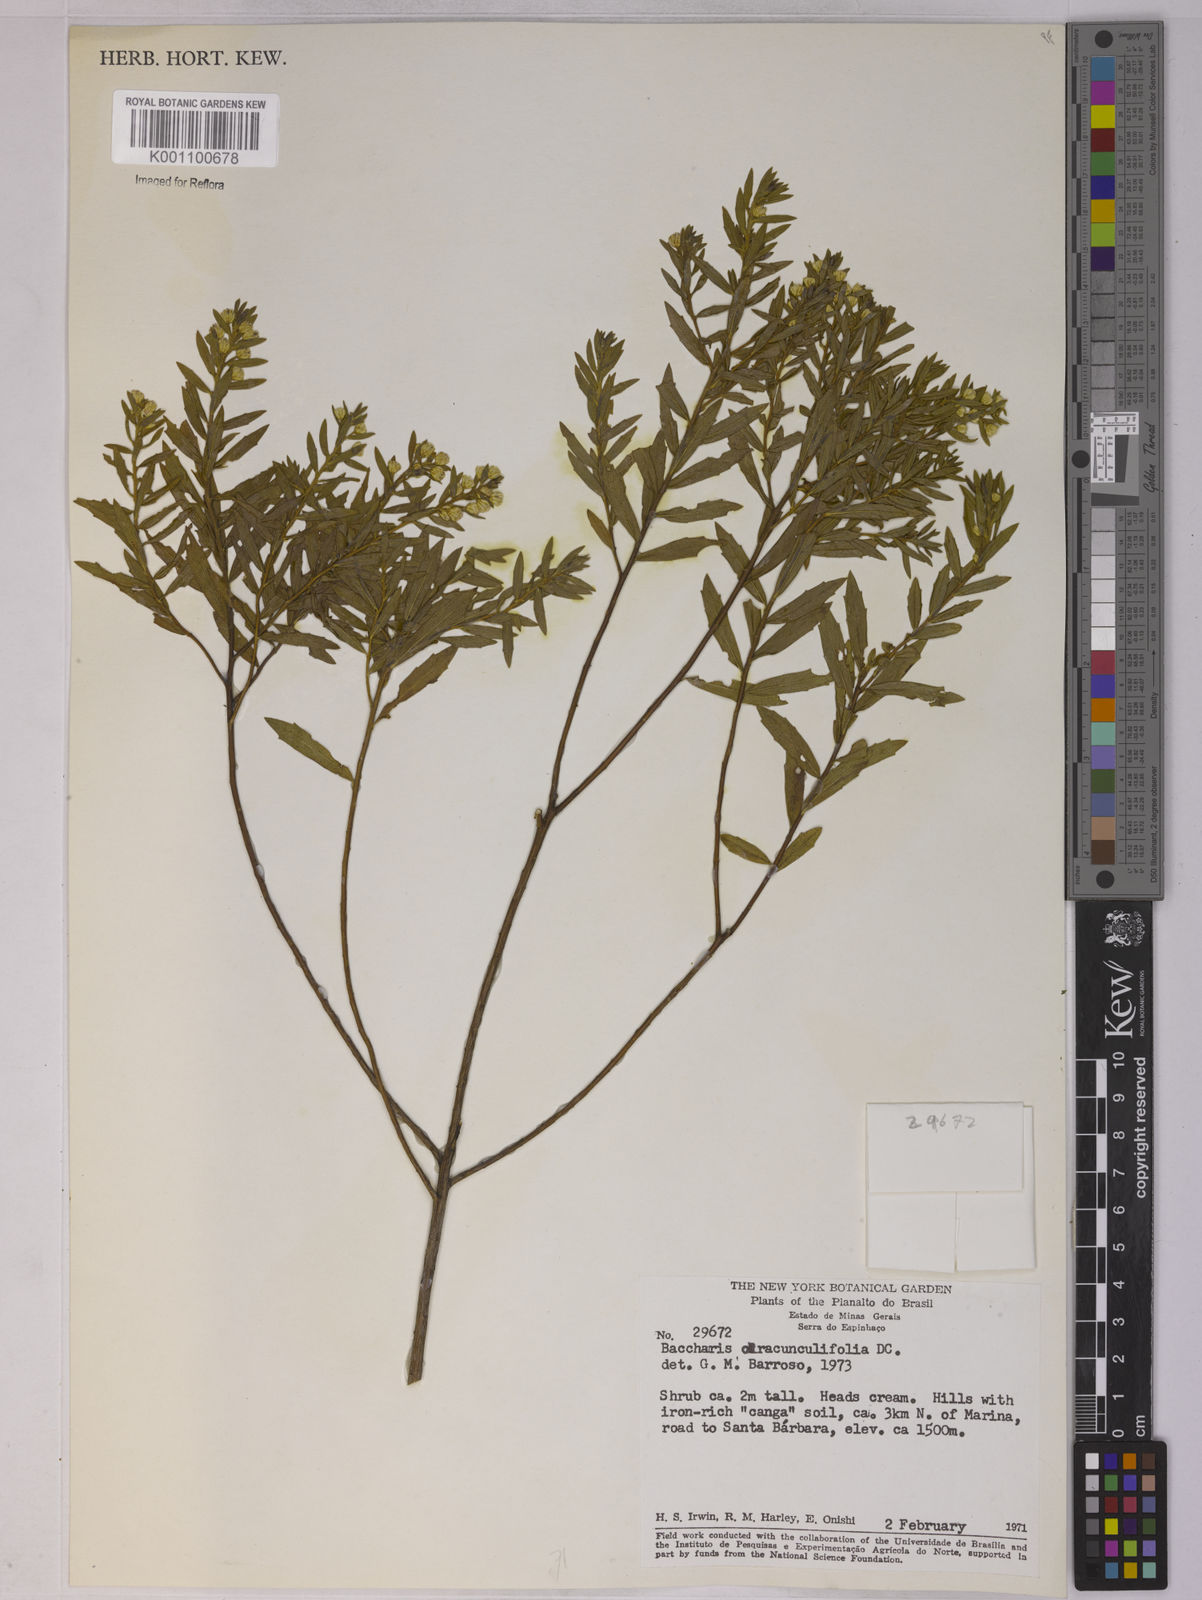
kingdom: Plantae
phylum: Tracheophyta
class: Magnoliopsida
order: Asterales
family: Asteraceae
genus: Baccharis
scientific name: Baccharis dracunculifolia
